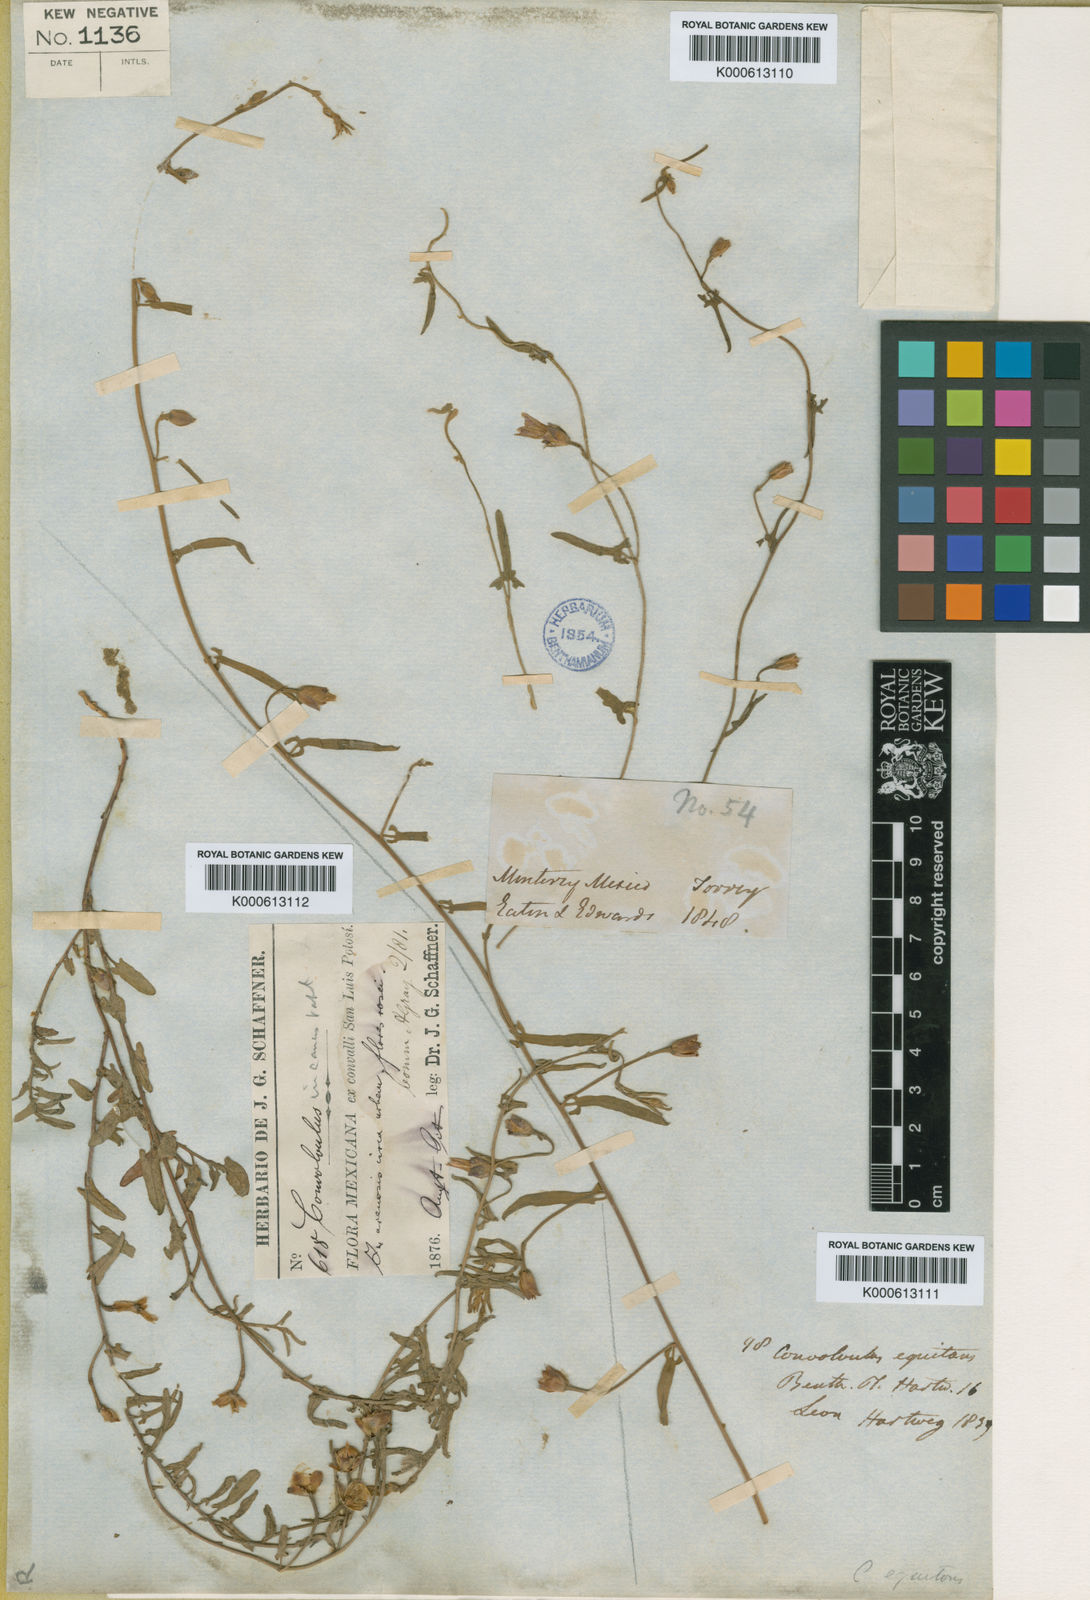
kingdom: Plantae
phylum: Tracheophyta
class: Magnoliopsida
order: Solanales
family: Convolvulaceae
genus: Convolvulus
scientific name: Convolvulus hermanniae
